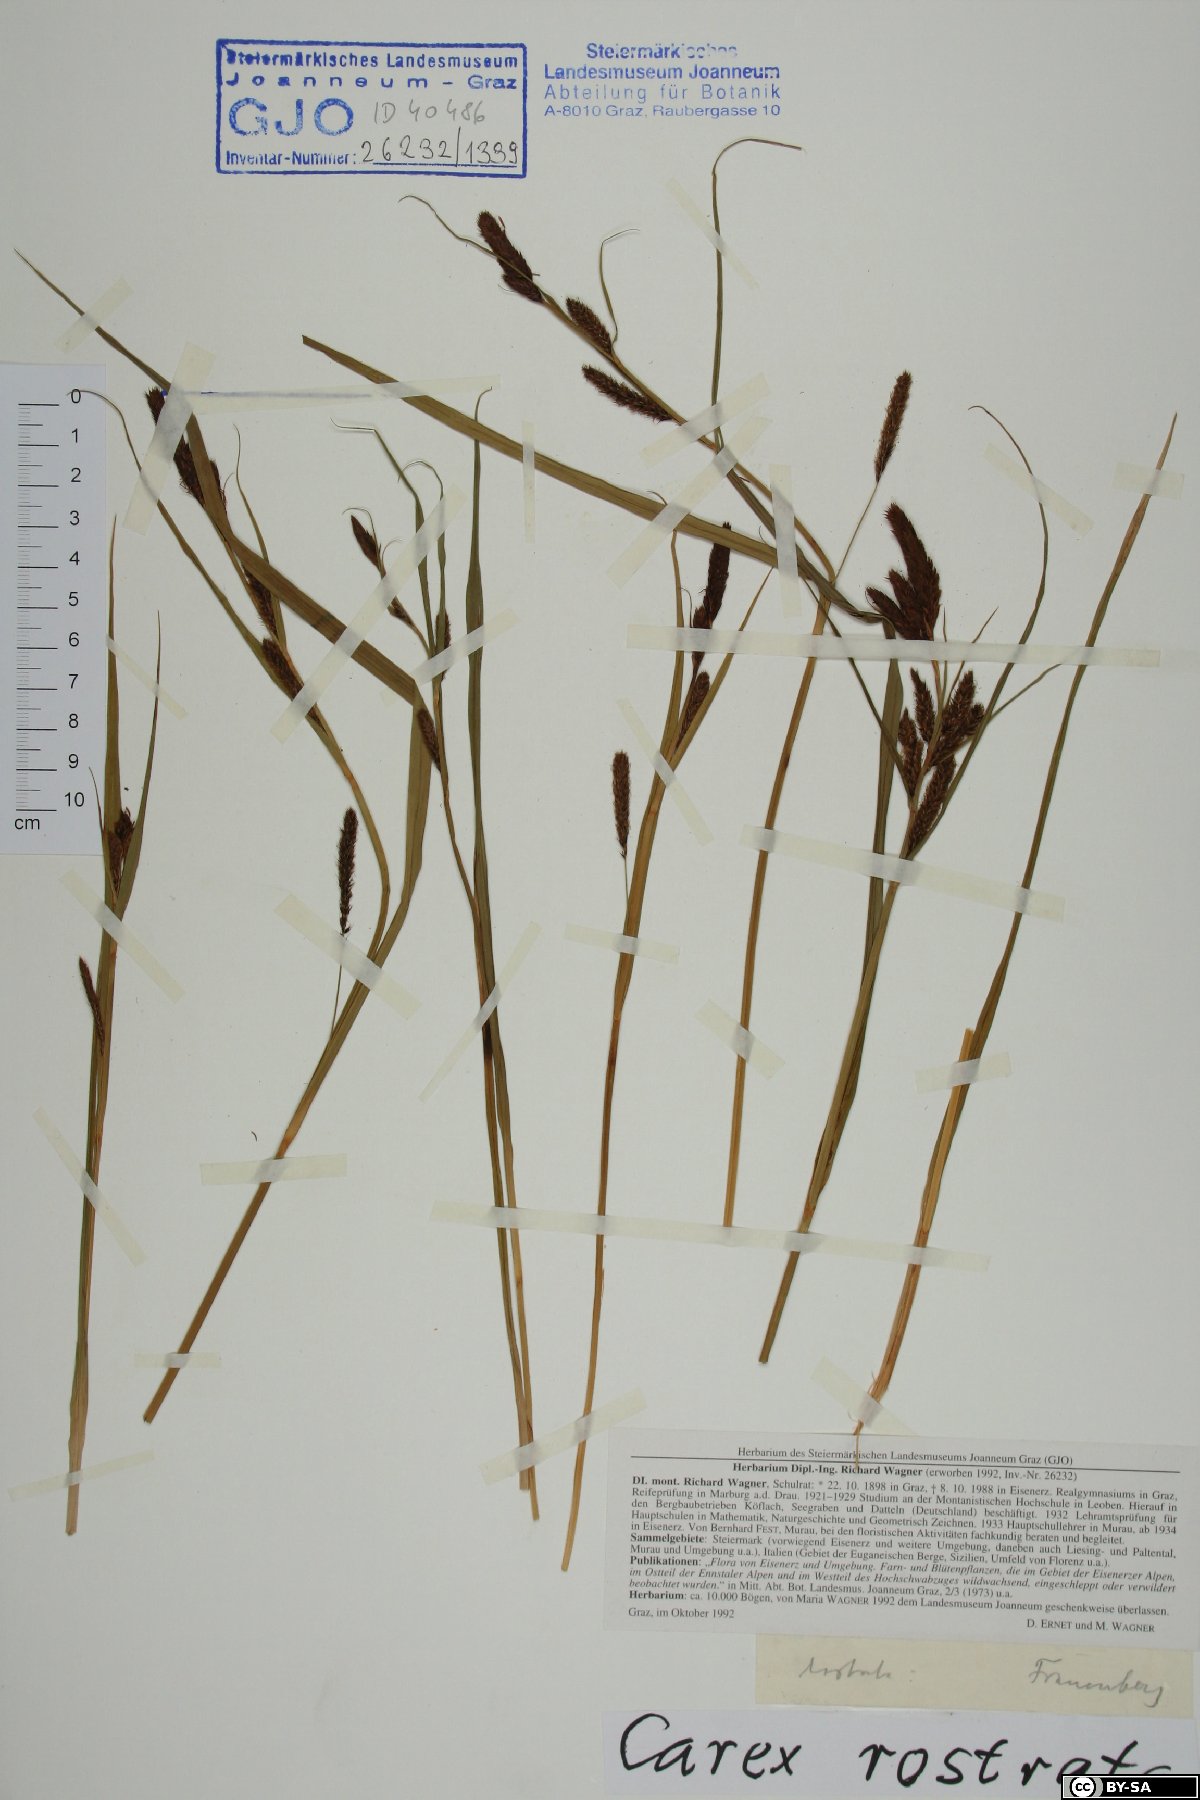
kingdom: Plantae
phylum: Tracheophyta
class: Liliopsida
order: Poales
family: Cyperaceae
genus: Carex
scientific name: Carex rostrata
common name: Bottle sedge
